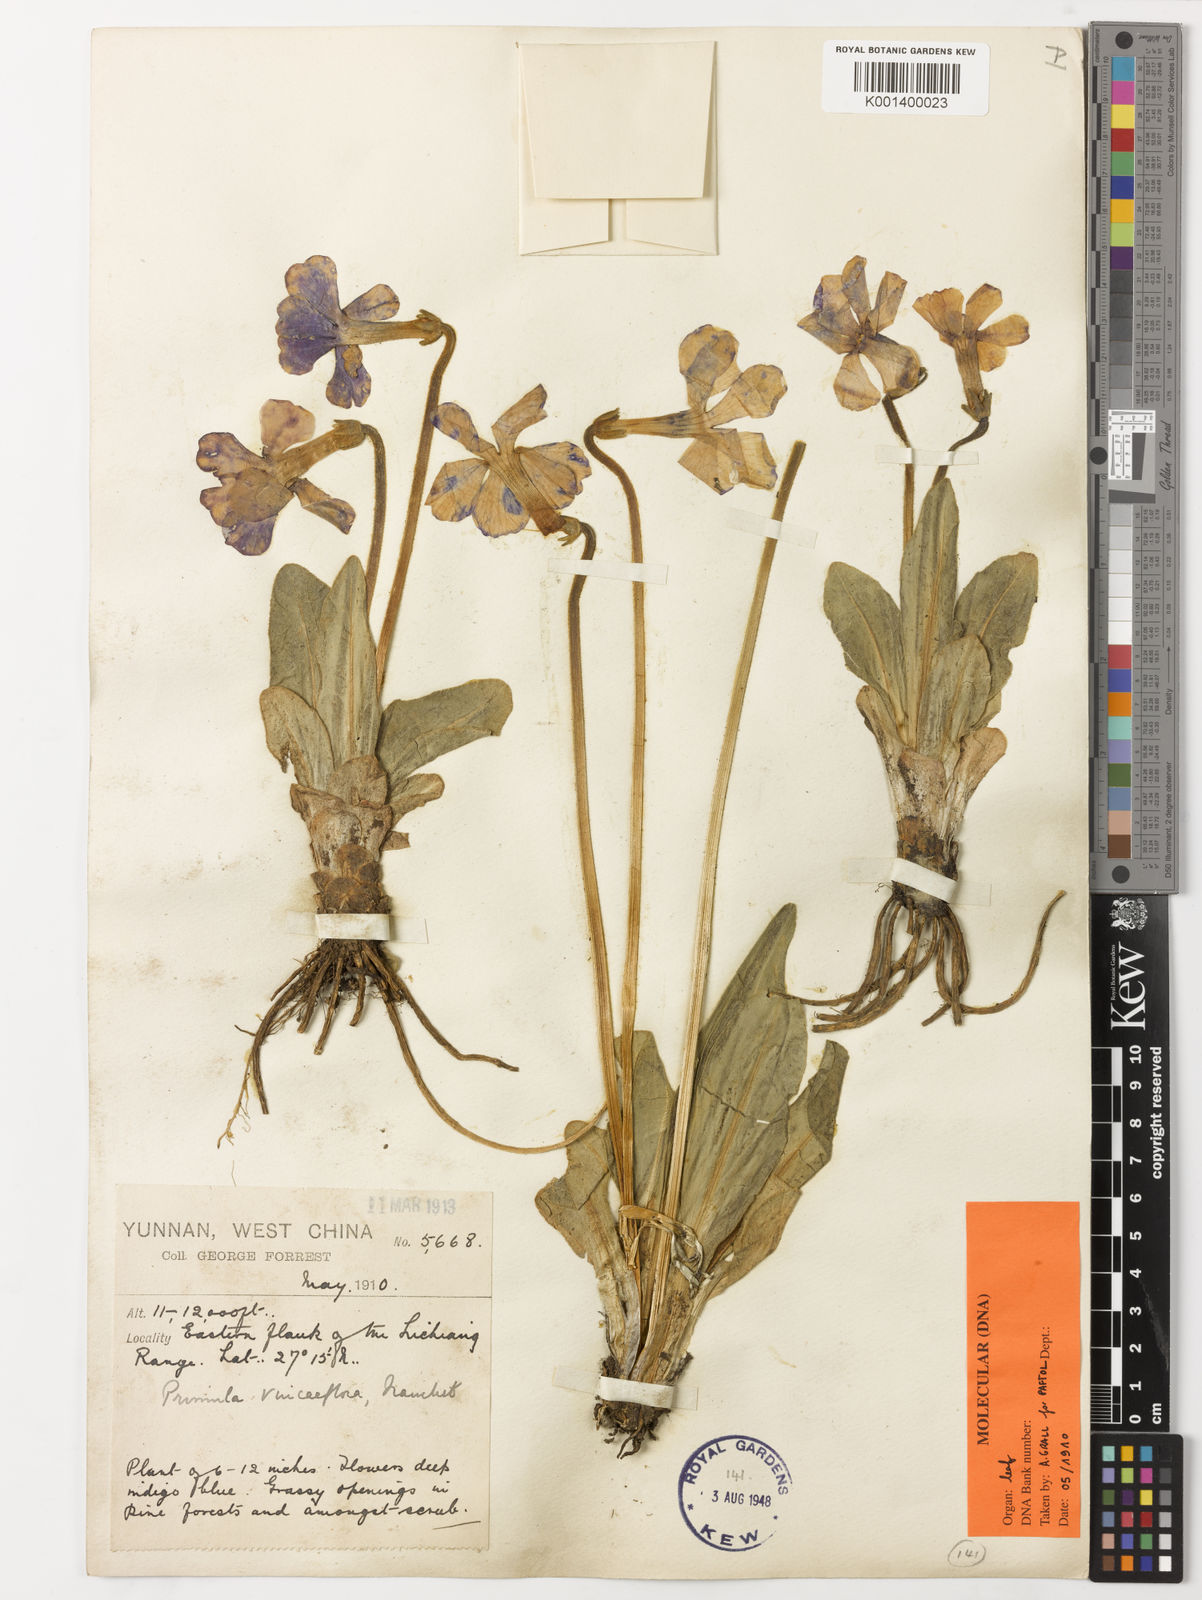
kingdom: Plantae
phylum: Tracheophyta
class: Magnoliopsida
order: Ericales
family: Primulaceae
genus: Omphalogramma
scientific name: Omphalogramma vinciflorum
